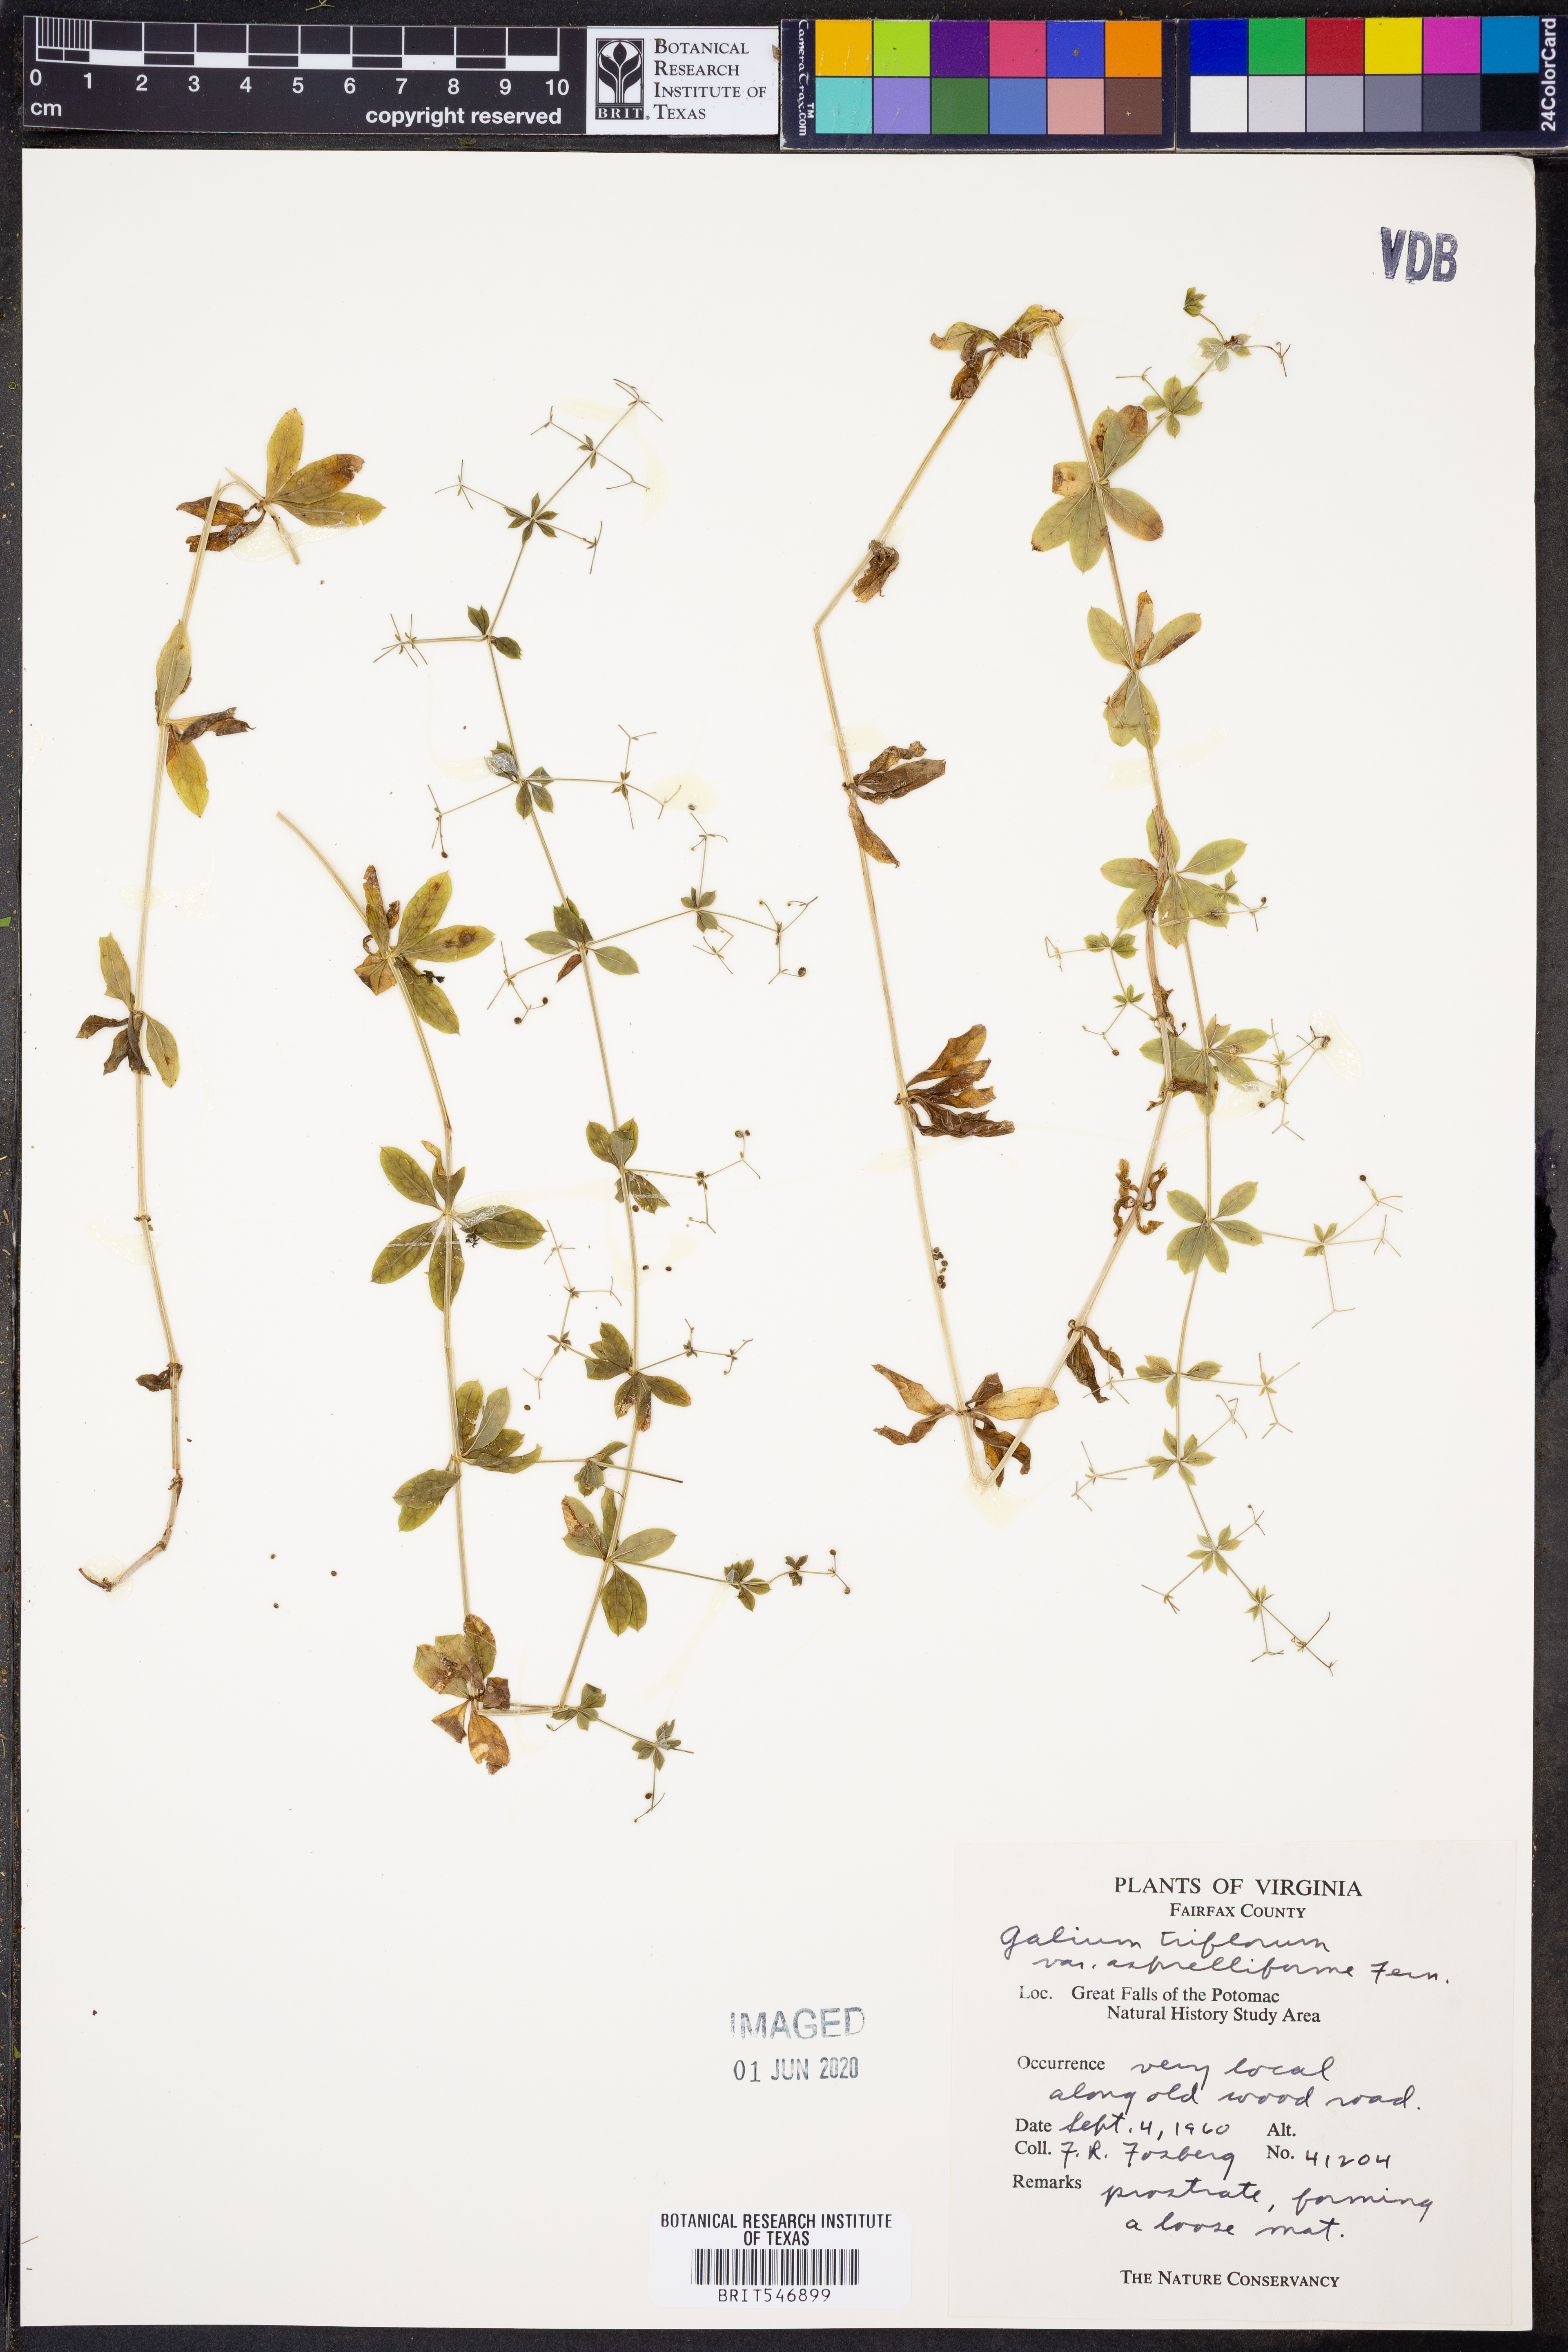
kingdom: Plantae
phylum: Tracheophyta
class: Magnoliopsida
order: Gentianales
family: Rubiaceae
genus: Galium
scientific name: Galium triflorum
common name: Fragrant bedstraw
